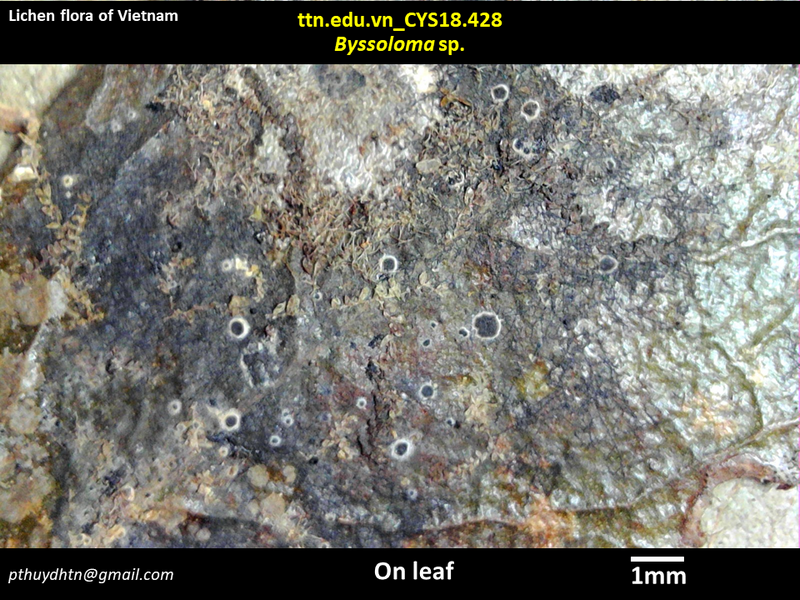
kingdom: Fungi
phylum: Ascomycota
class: Lecanoromycetes
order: Lecanorales
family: Byssolomataceae
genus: Byssoloma
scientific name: Byssoloma
